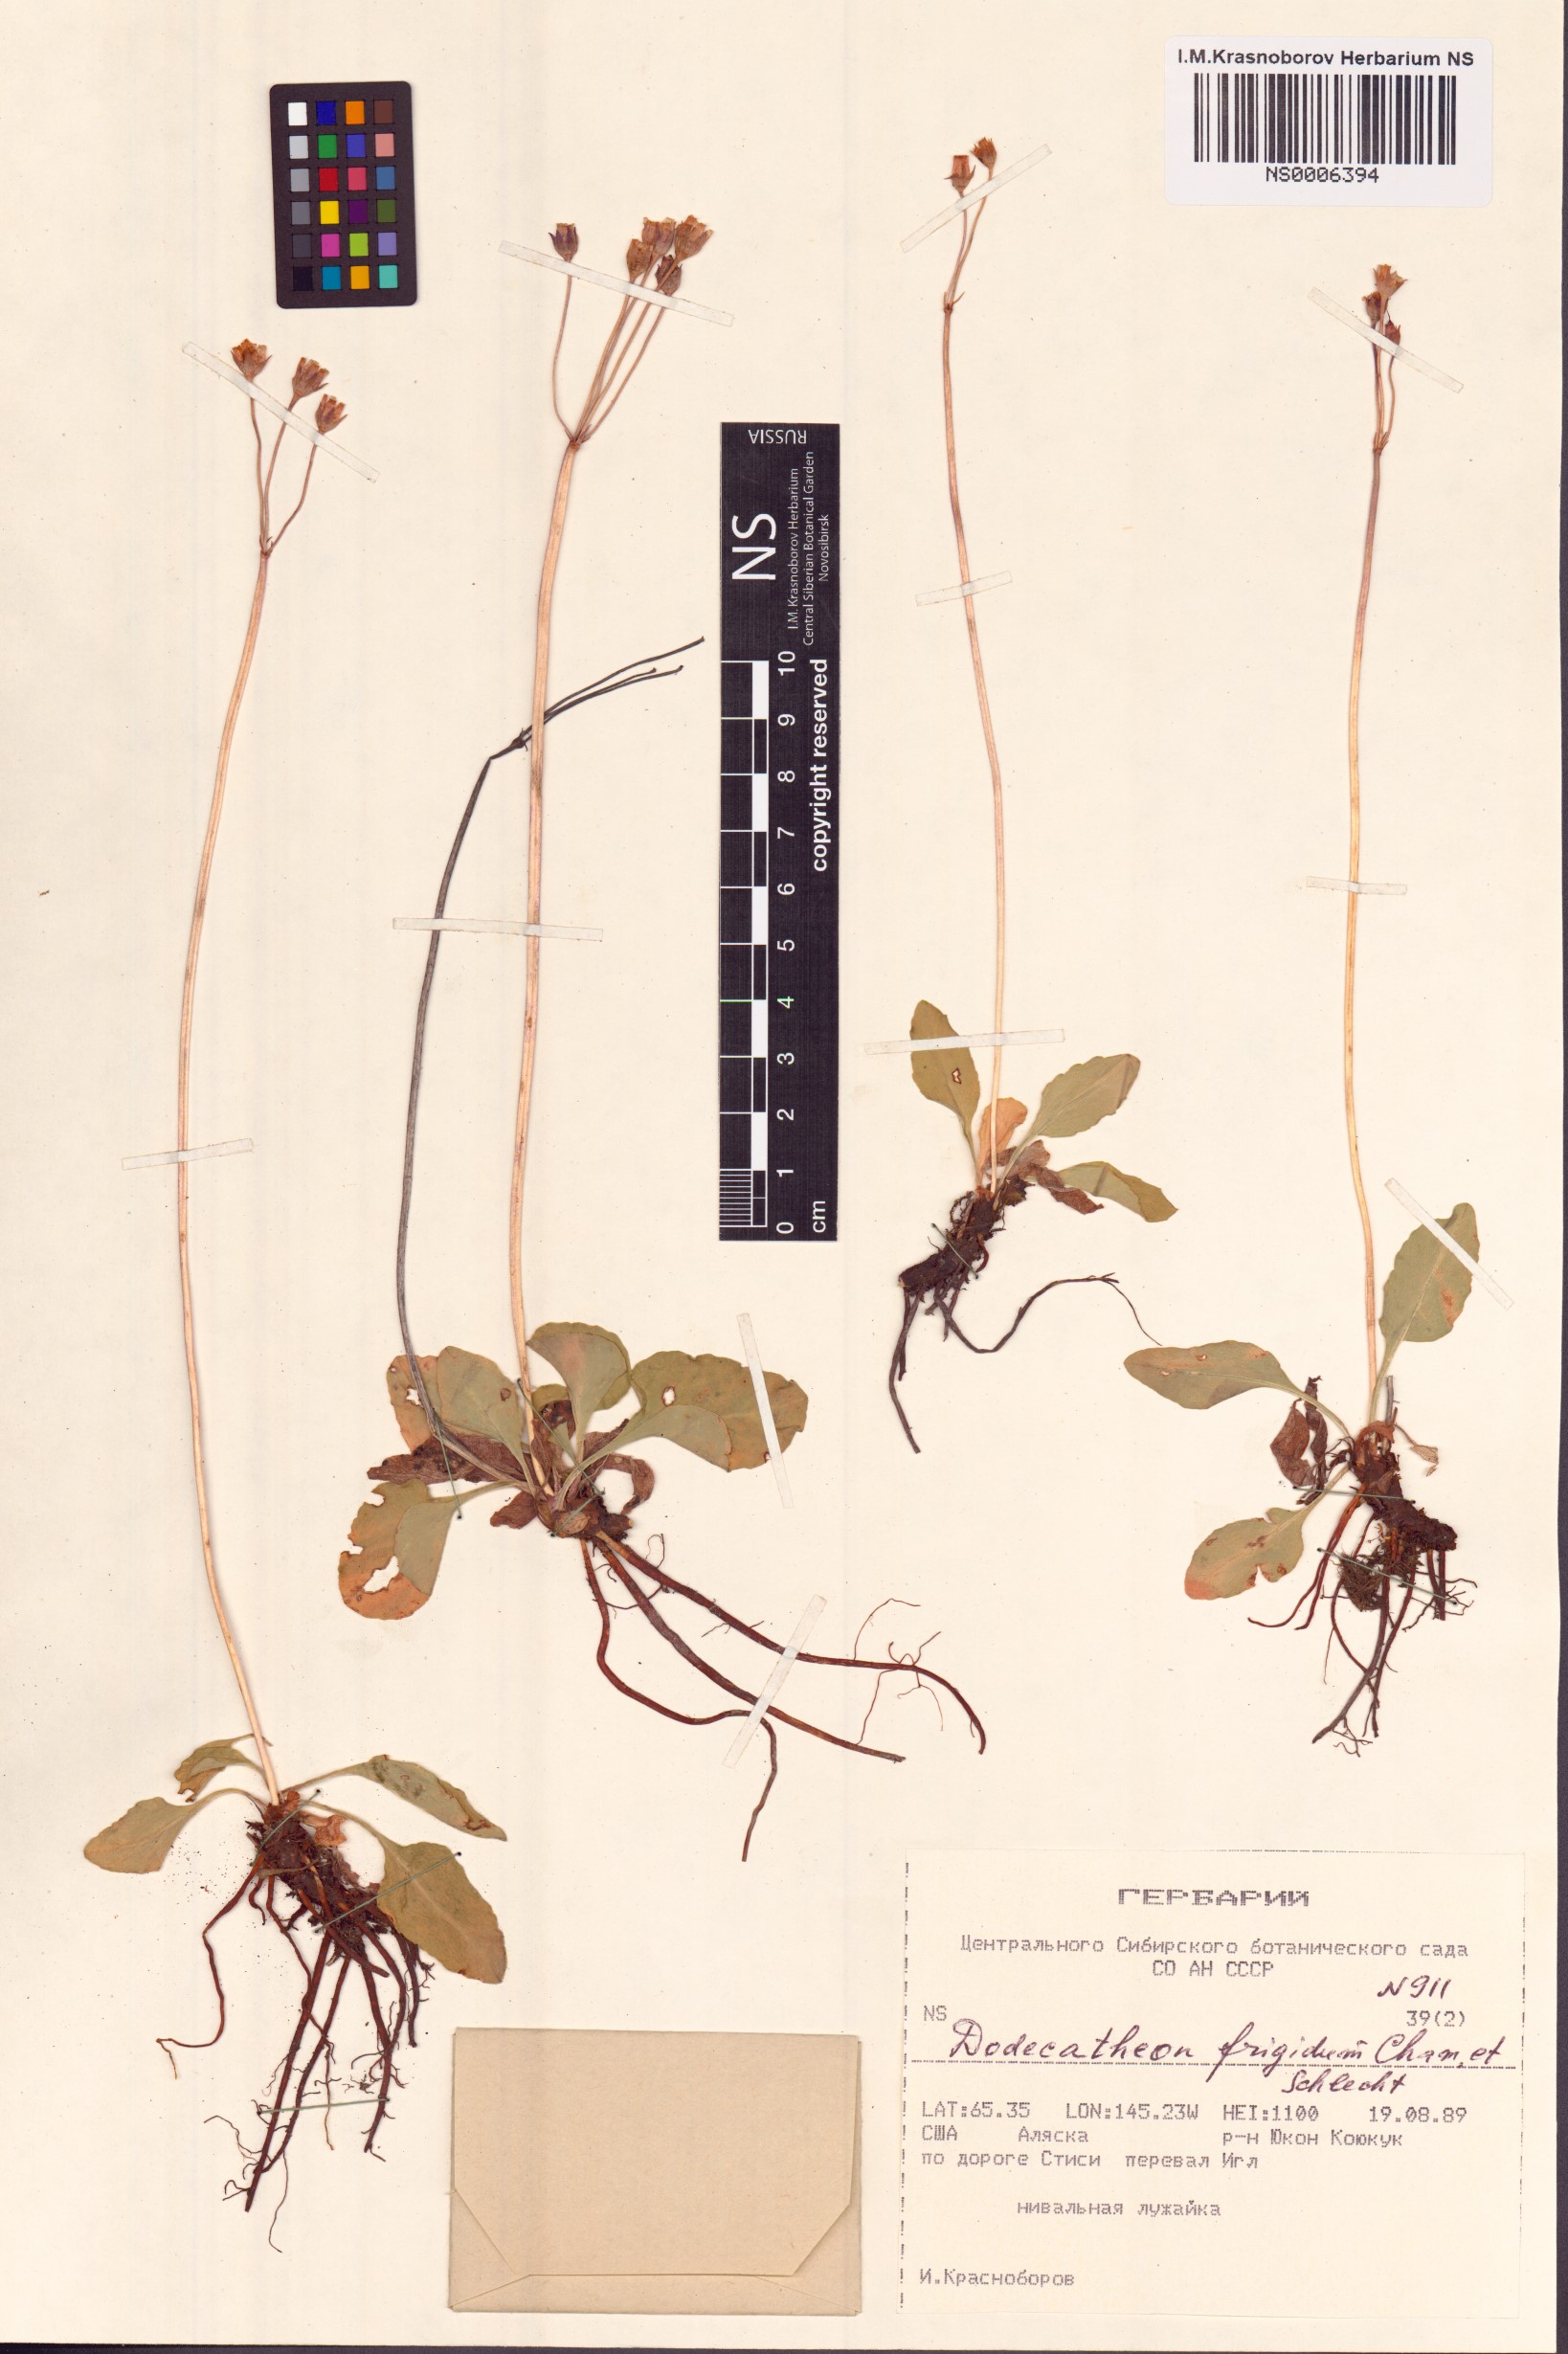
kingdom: Plantae
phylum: Tracheophyta
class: Magnoliopsida
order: Ericales
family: Primulaceae
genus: Dodecatheon
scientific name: Dodecatheon frigidum
